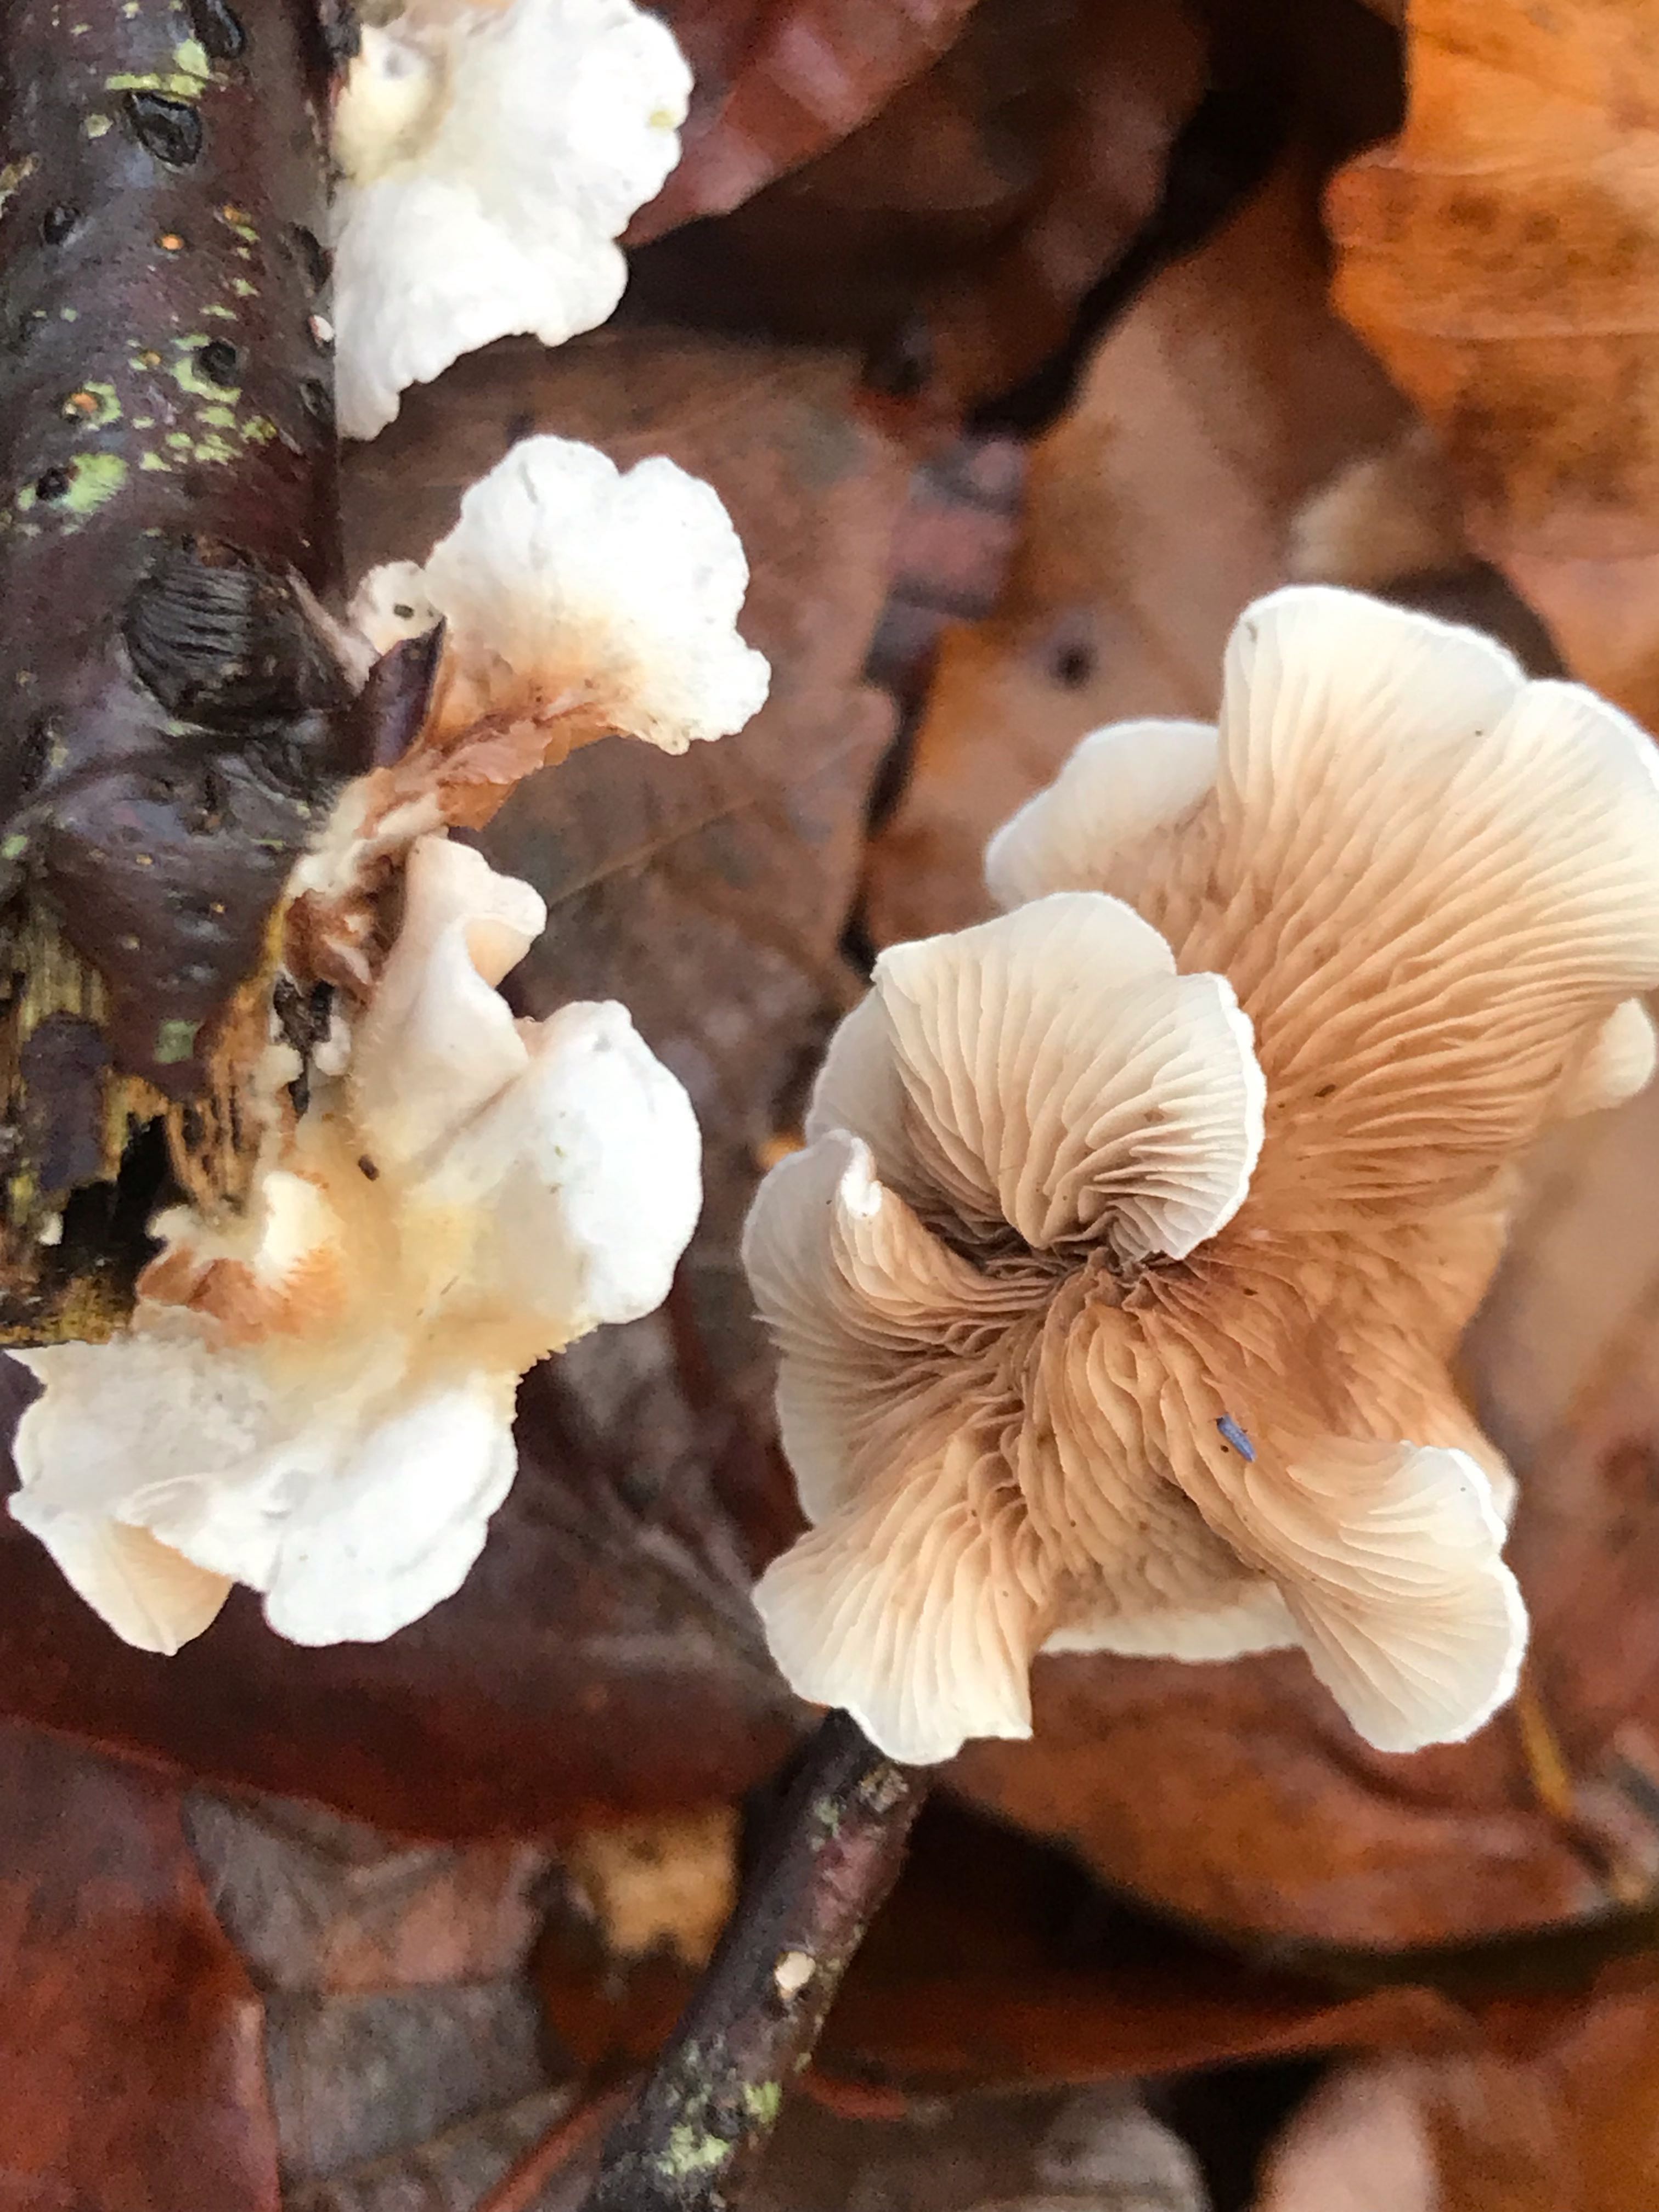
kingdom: Fungi
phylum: Basidiomycota
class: Agaricomycetes
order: Agaricales
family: Crepidotaceae
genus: Crepidotus
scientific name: Crepidotus
